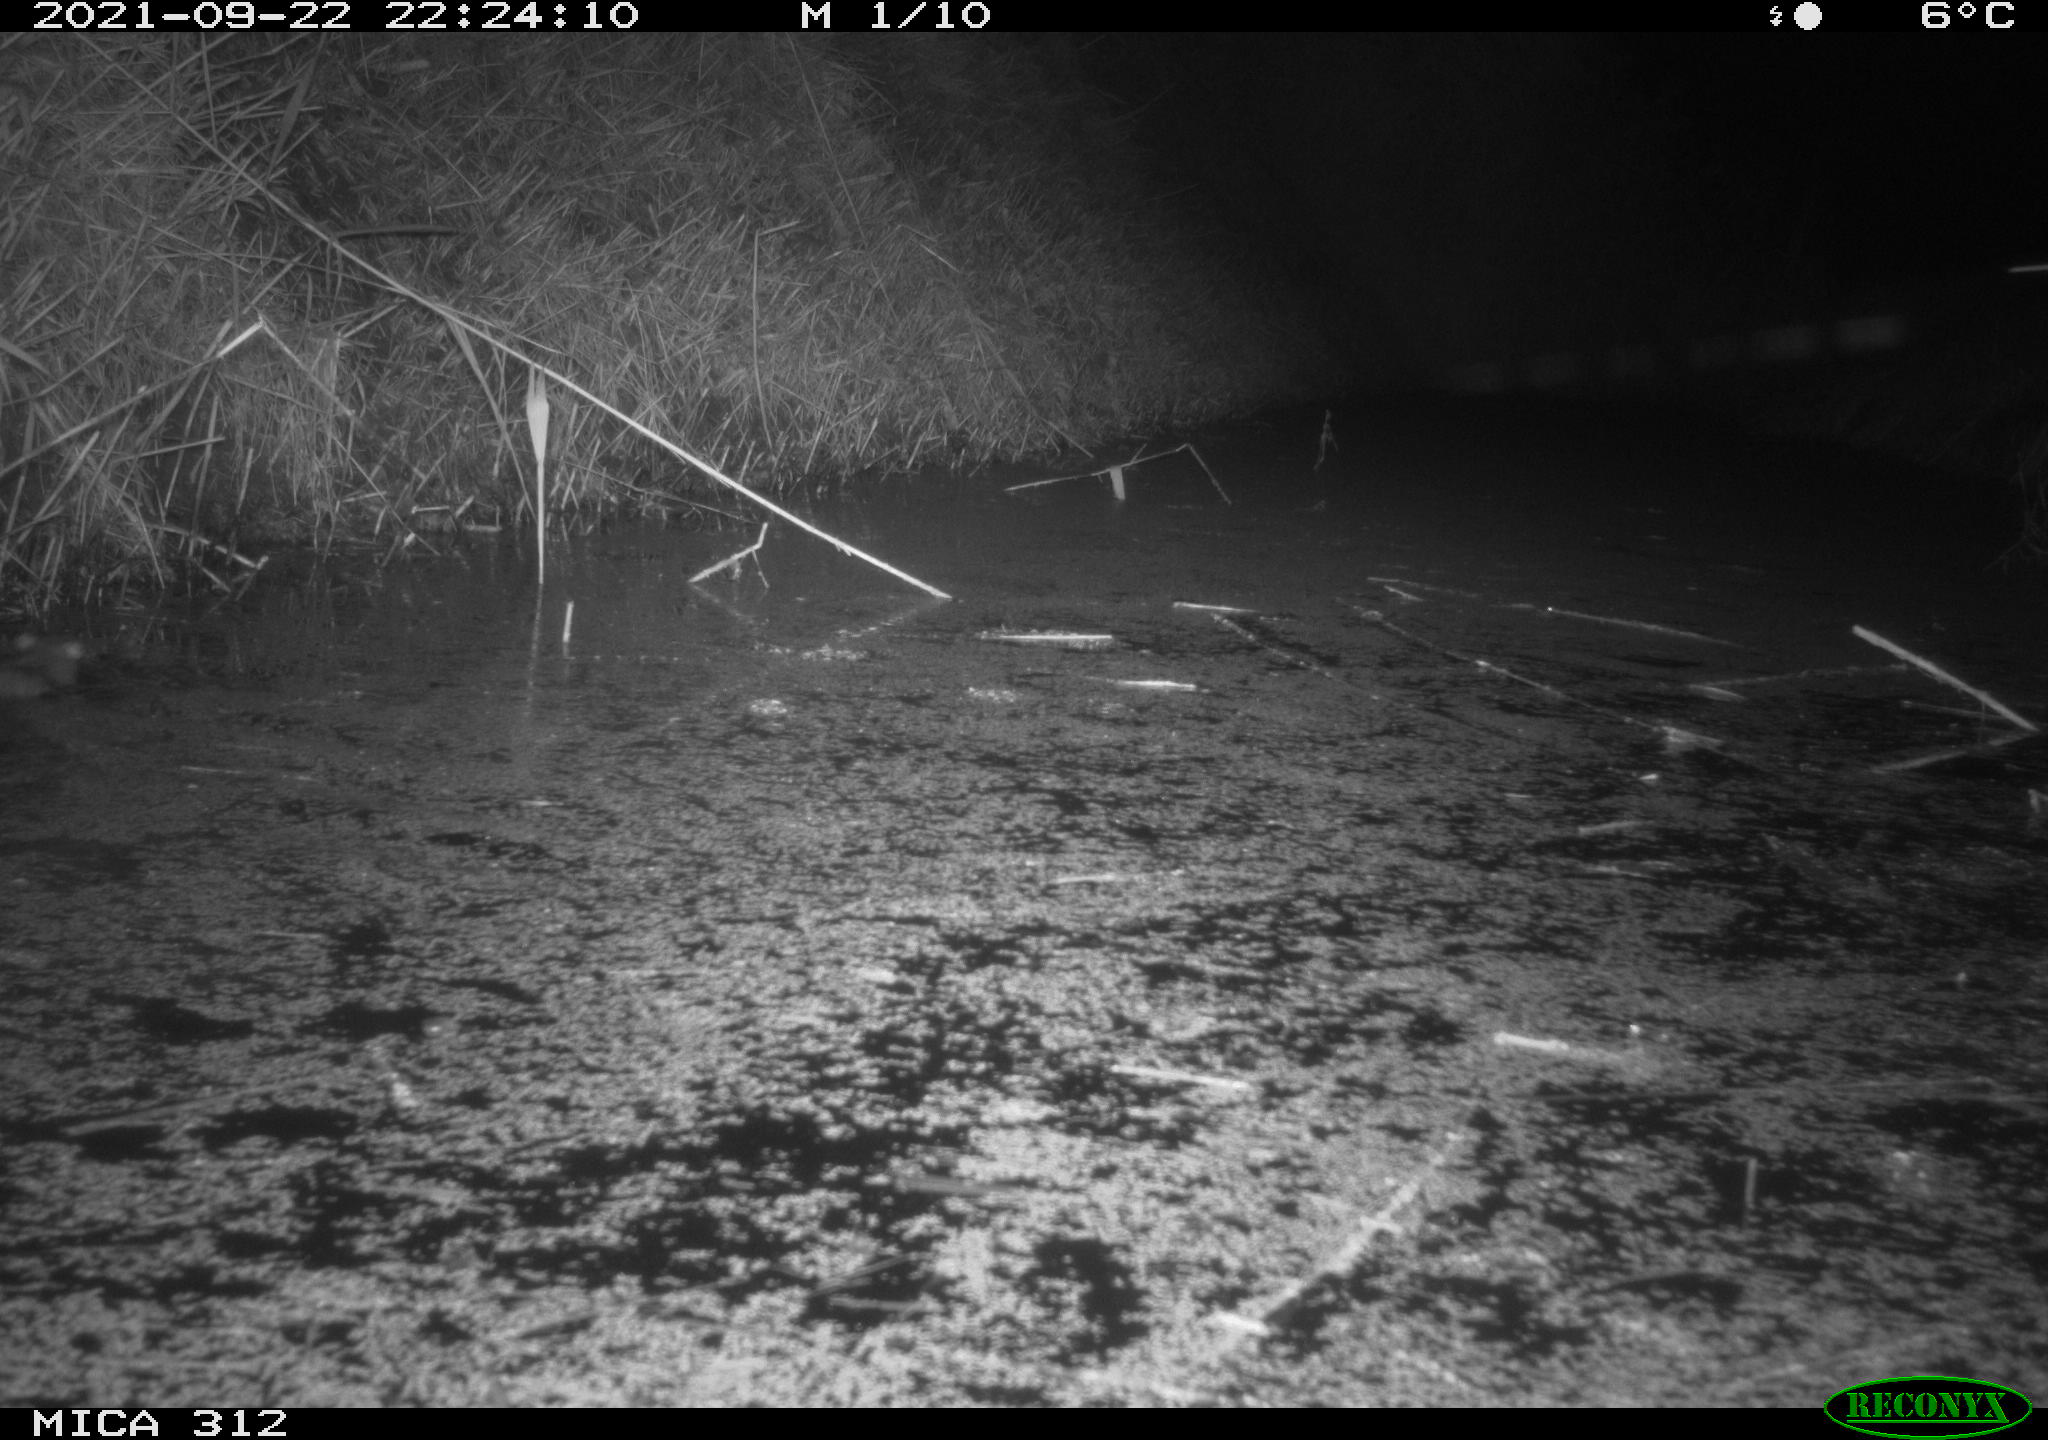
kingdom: Animalia
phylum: Chordata
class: Mammalia
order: Rodentia
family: Muridae
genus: Rattus
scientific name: Rattus norvegicus
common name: Brown rat
